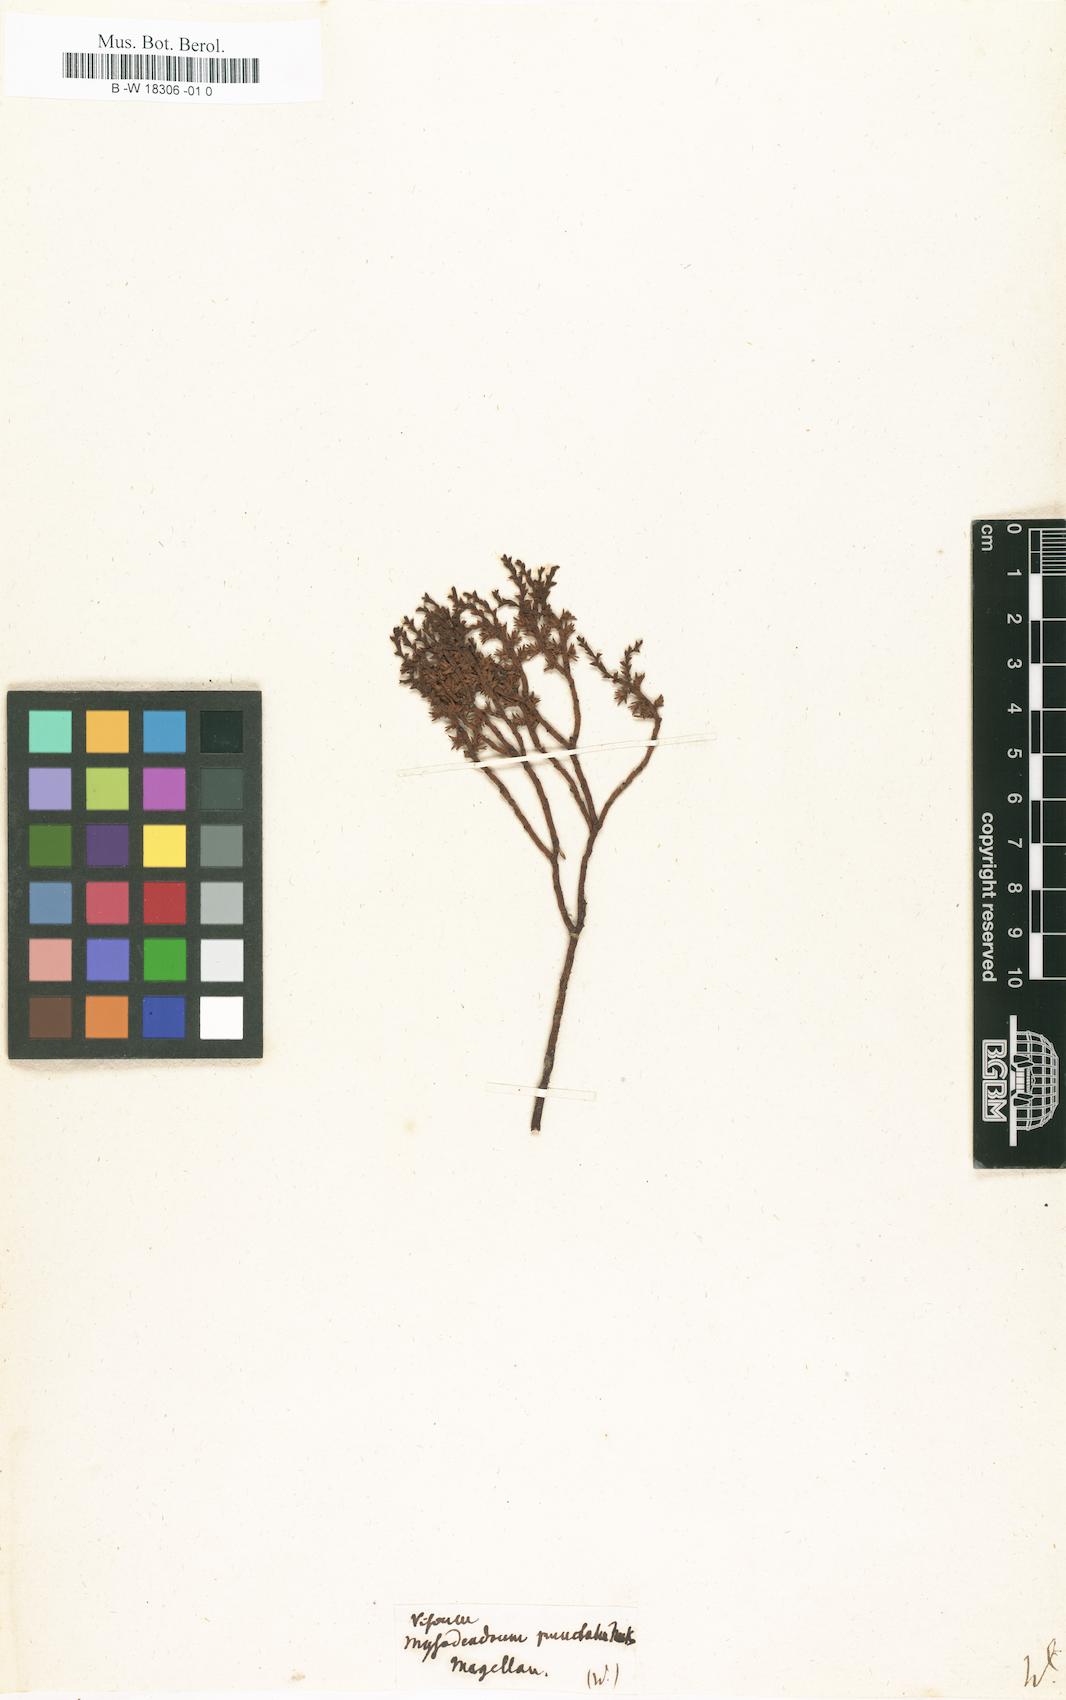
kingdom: Plantae
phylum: Tracheophyta
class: Magnoliopsida
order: Santalales
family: Viscaceae
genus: Viscum
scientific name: Viscum
